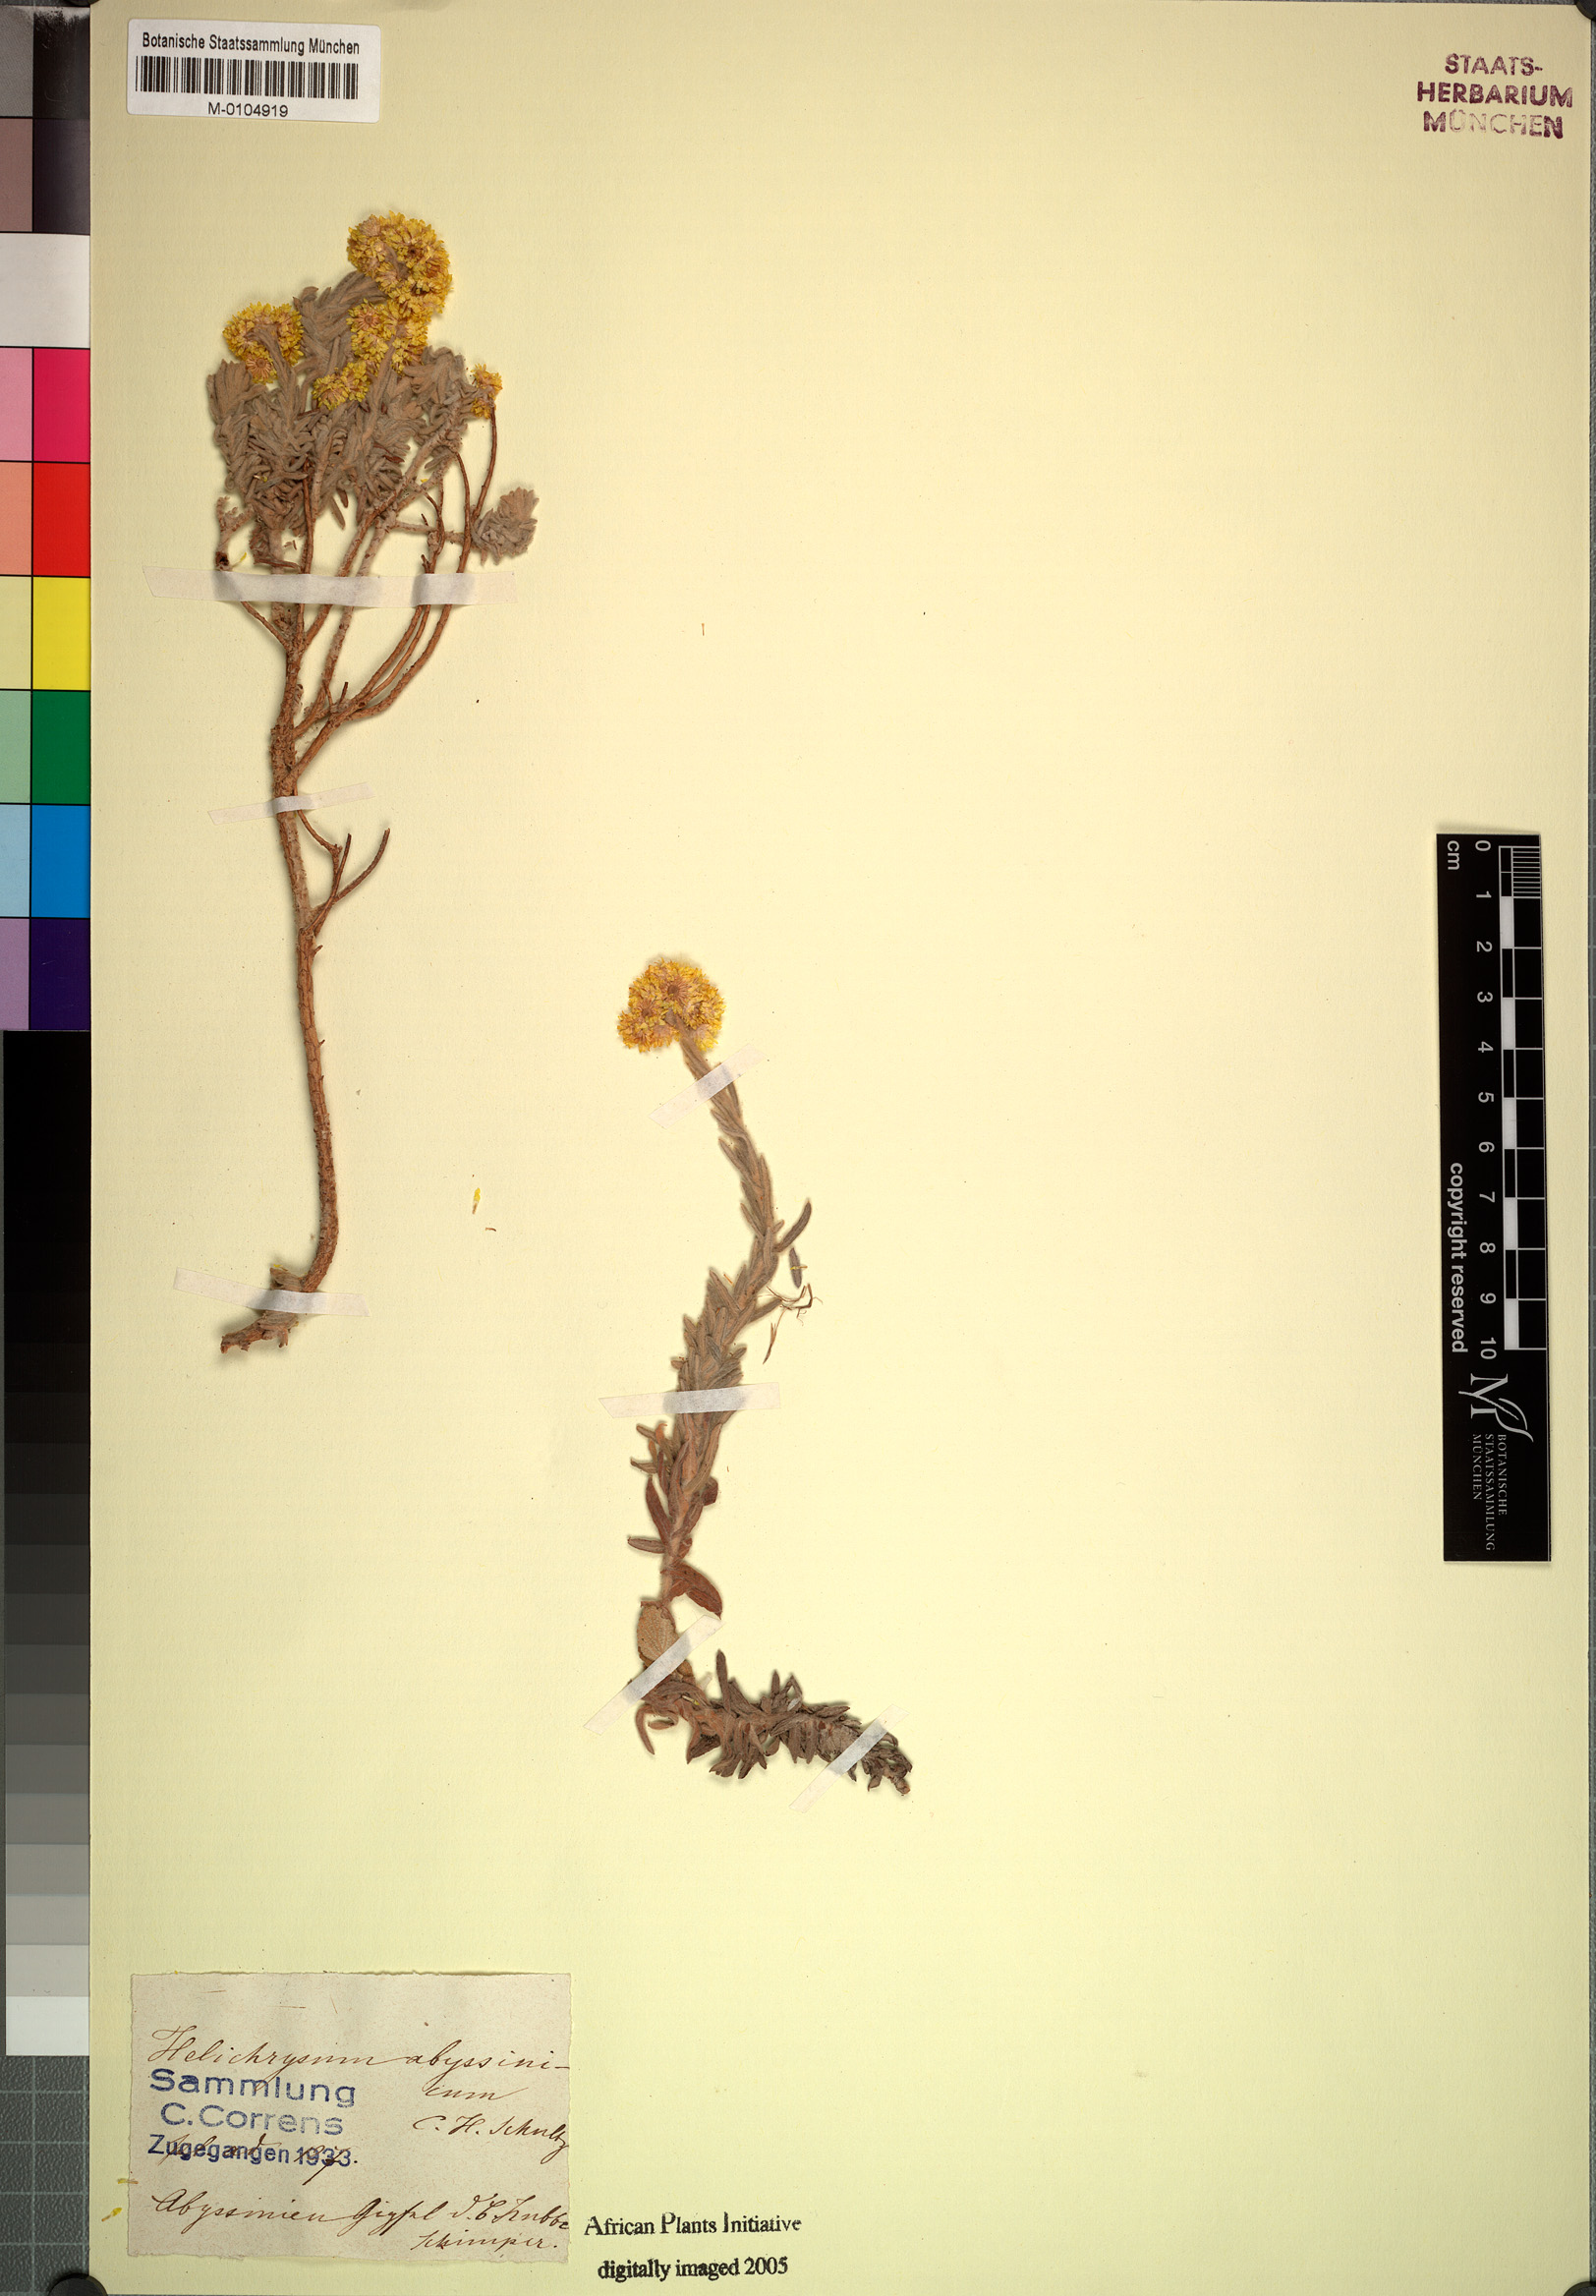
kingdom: Plantae
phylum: Tracheophyta
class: Magnoliopsida
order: Asterales
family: Asteraceae
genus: Helichrysum
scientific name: Helichrysum splendidum
